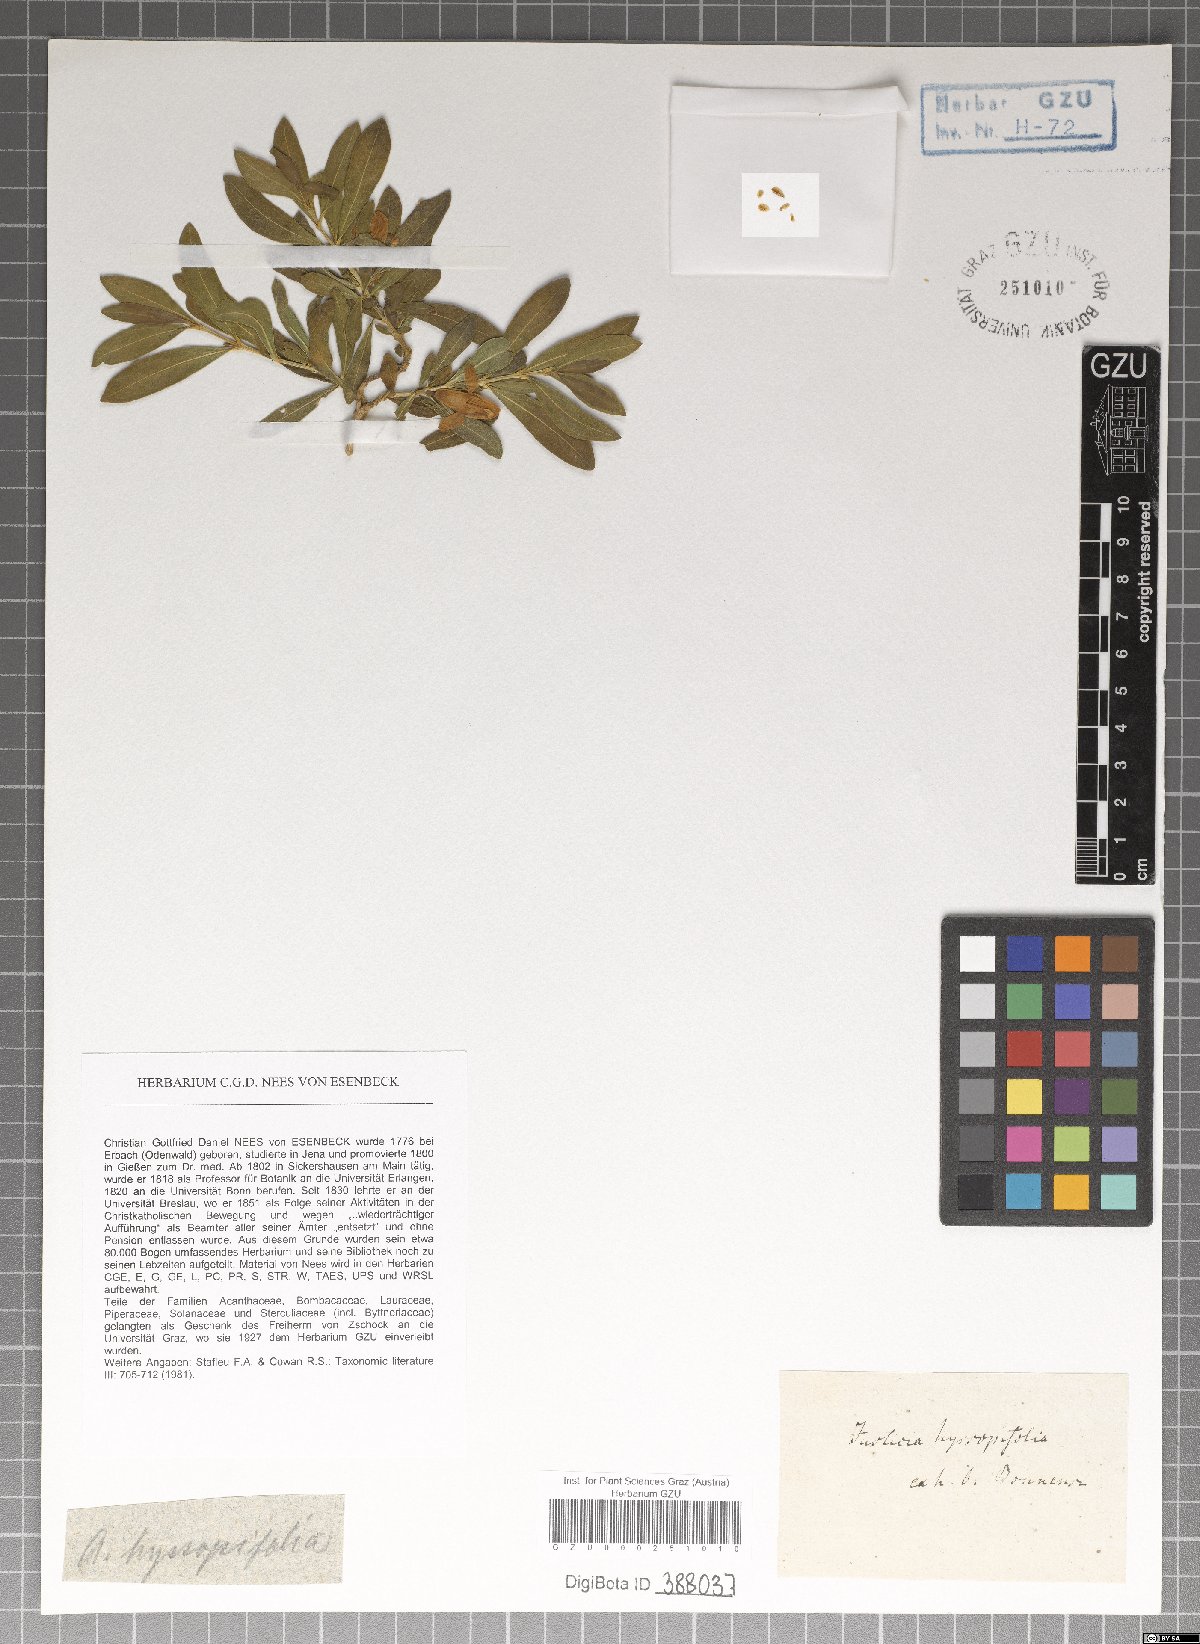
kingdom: Plantae
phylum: Tracheophyta
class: Magnoliopsida
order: Lamiales
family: Acanthaceae
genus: Monechma
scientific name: Monechma spartioides
